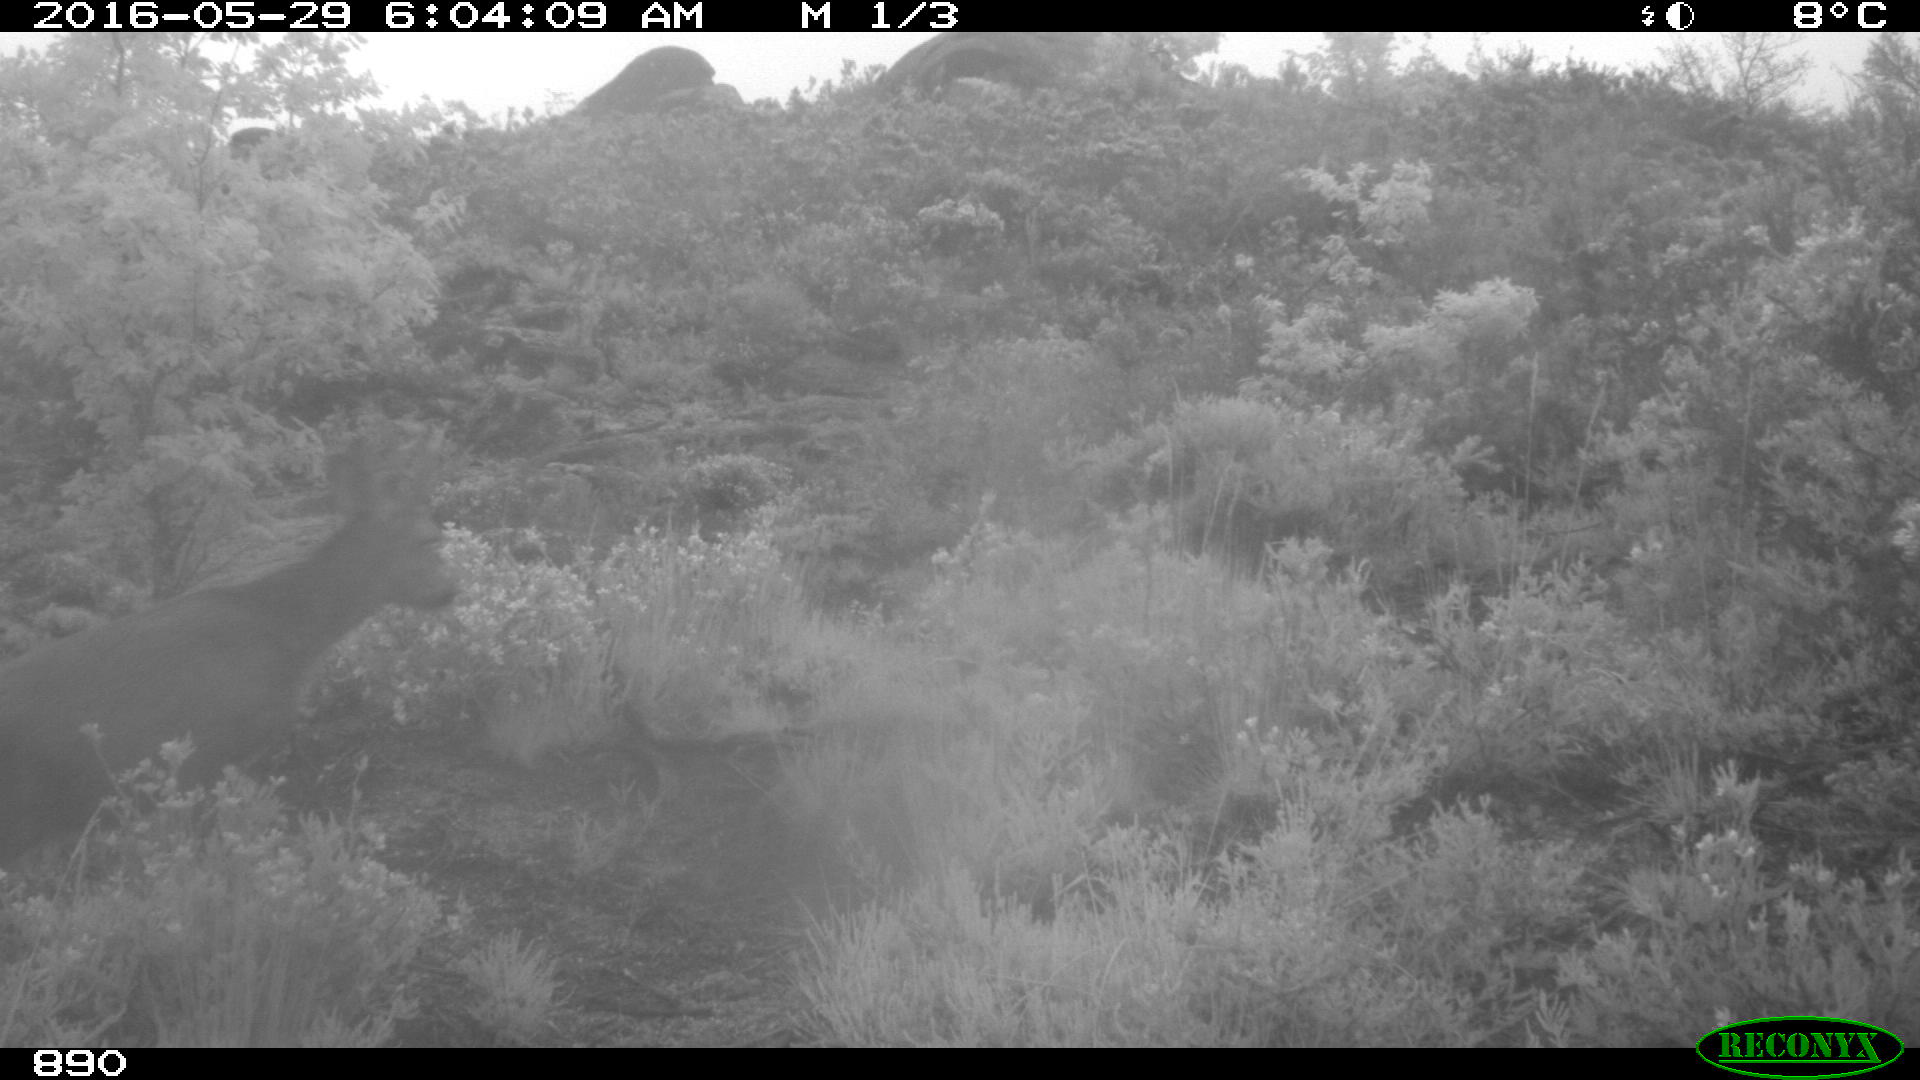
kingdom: Animalia
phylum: Chordata
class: Mammalia
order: Artiodactyla
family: Cervidae
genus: Capreolus
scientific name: Capreolus capreolus
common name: Western roe deer
